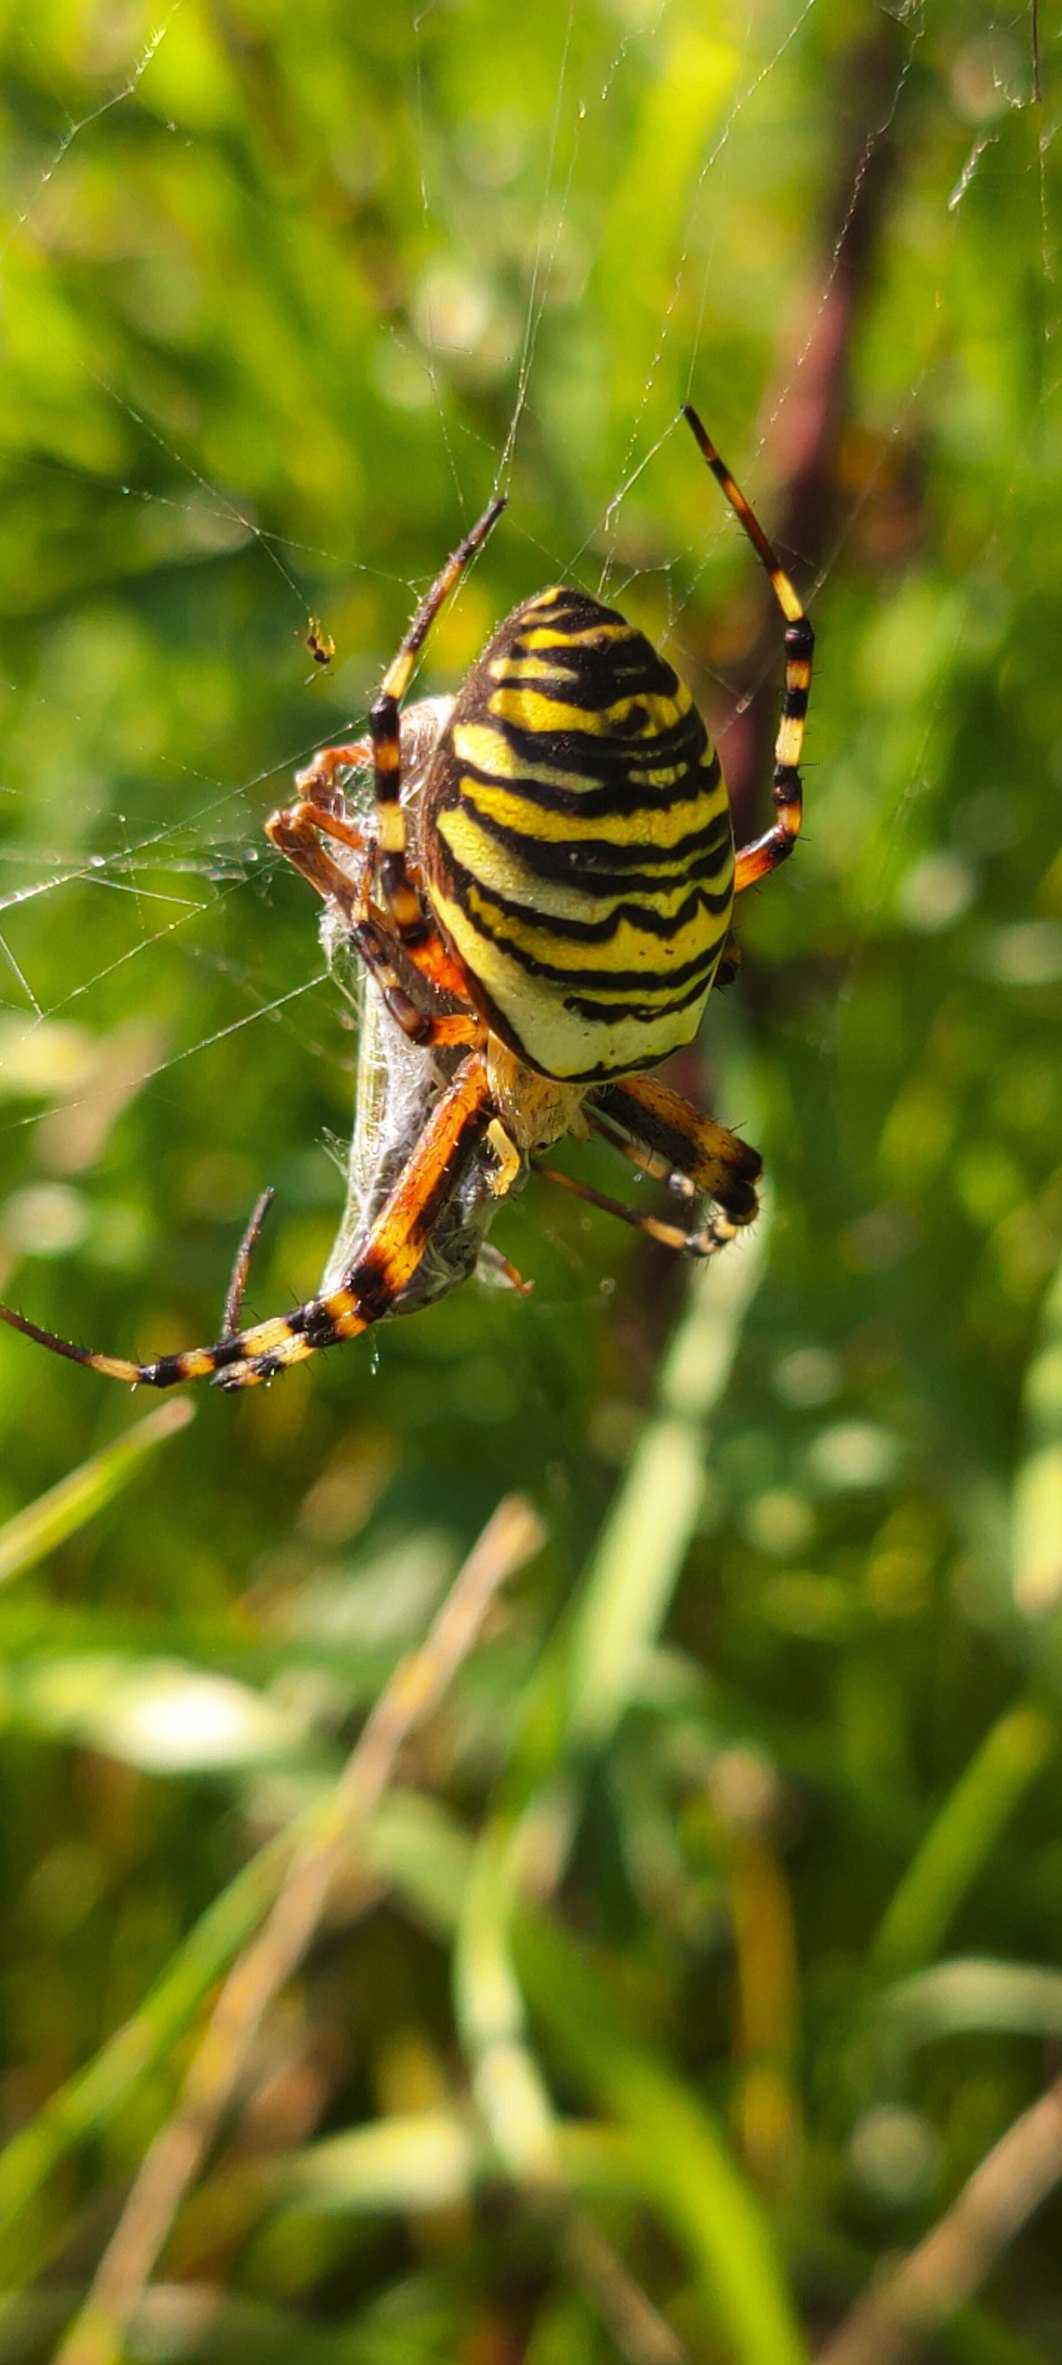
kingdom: Animalia
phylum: Arthropoda
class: Arachnida
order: Araneae
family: Araneidae
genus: Argiope
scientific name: Argiope bruennichi
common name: Hvepseedderkop
